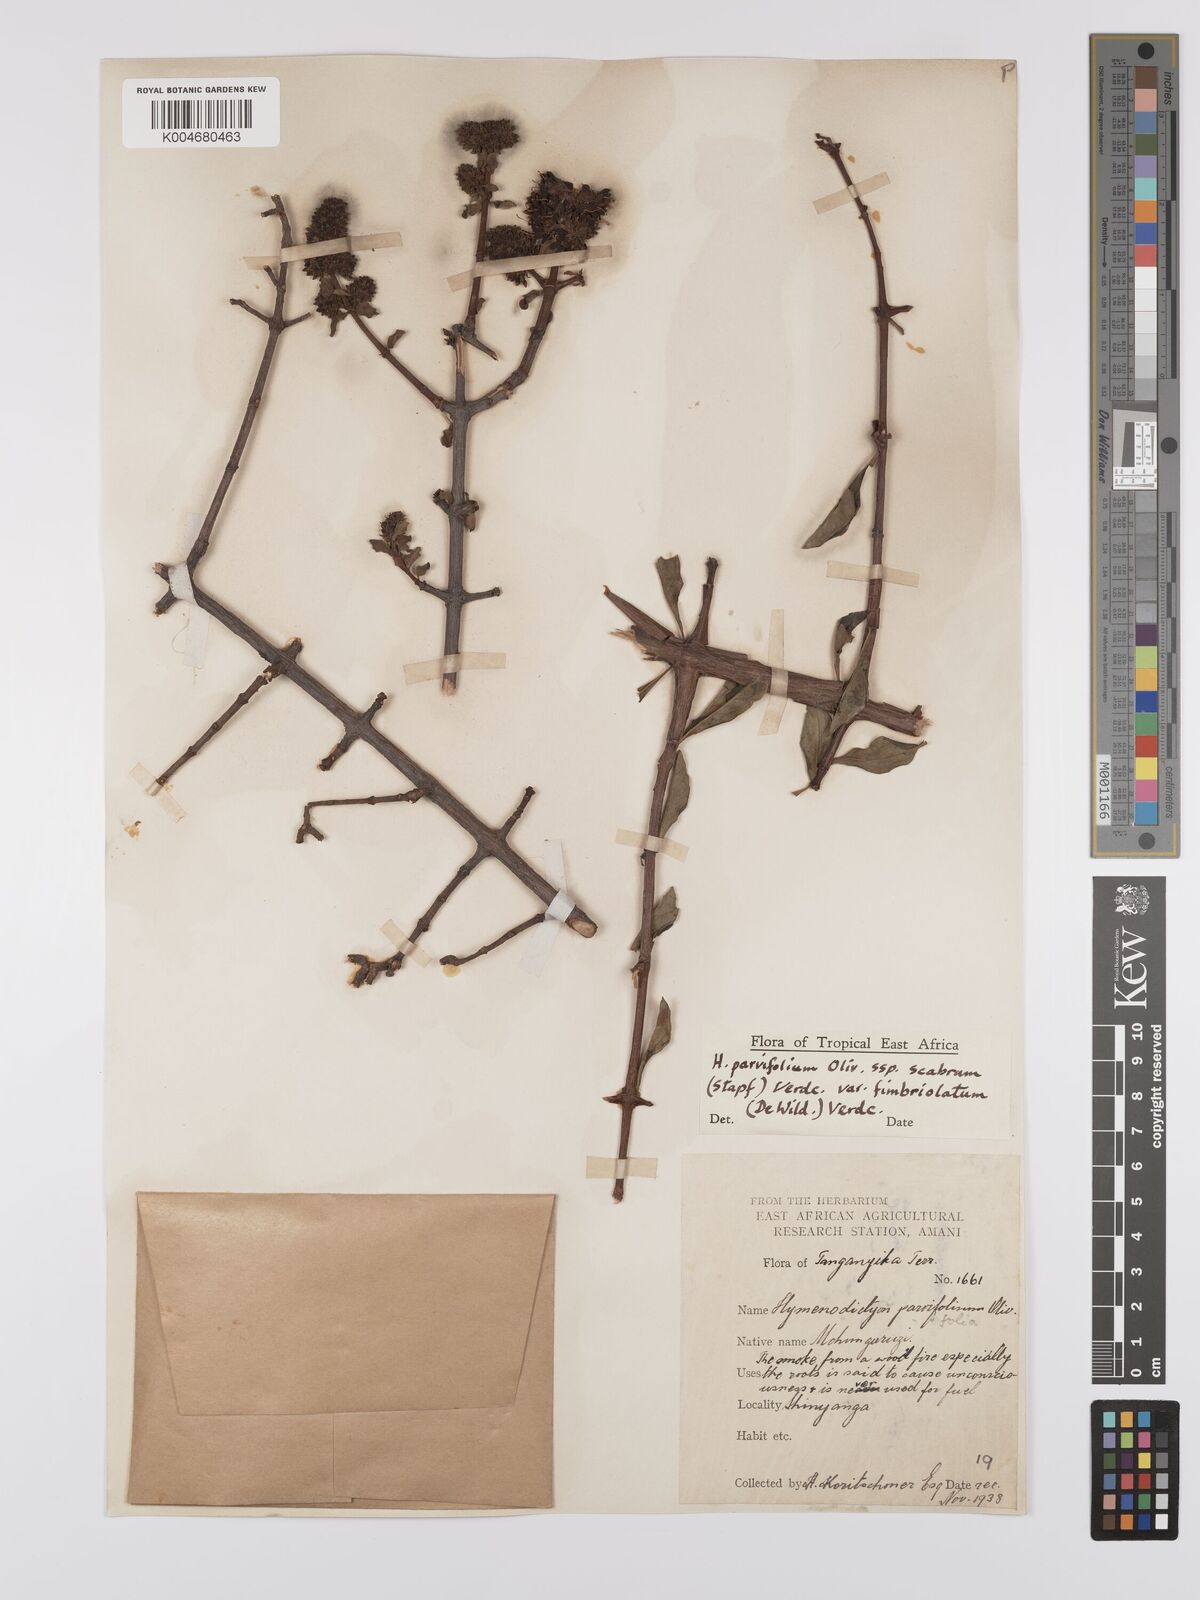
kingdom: Plantae
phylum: Tracheophyta
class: Magnoliopsida
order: Gentianales
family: Rubiaceae
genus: Hymenodictyon
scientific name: Hymenodictyon scabrum
